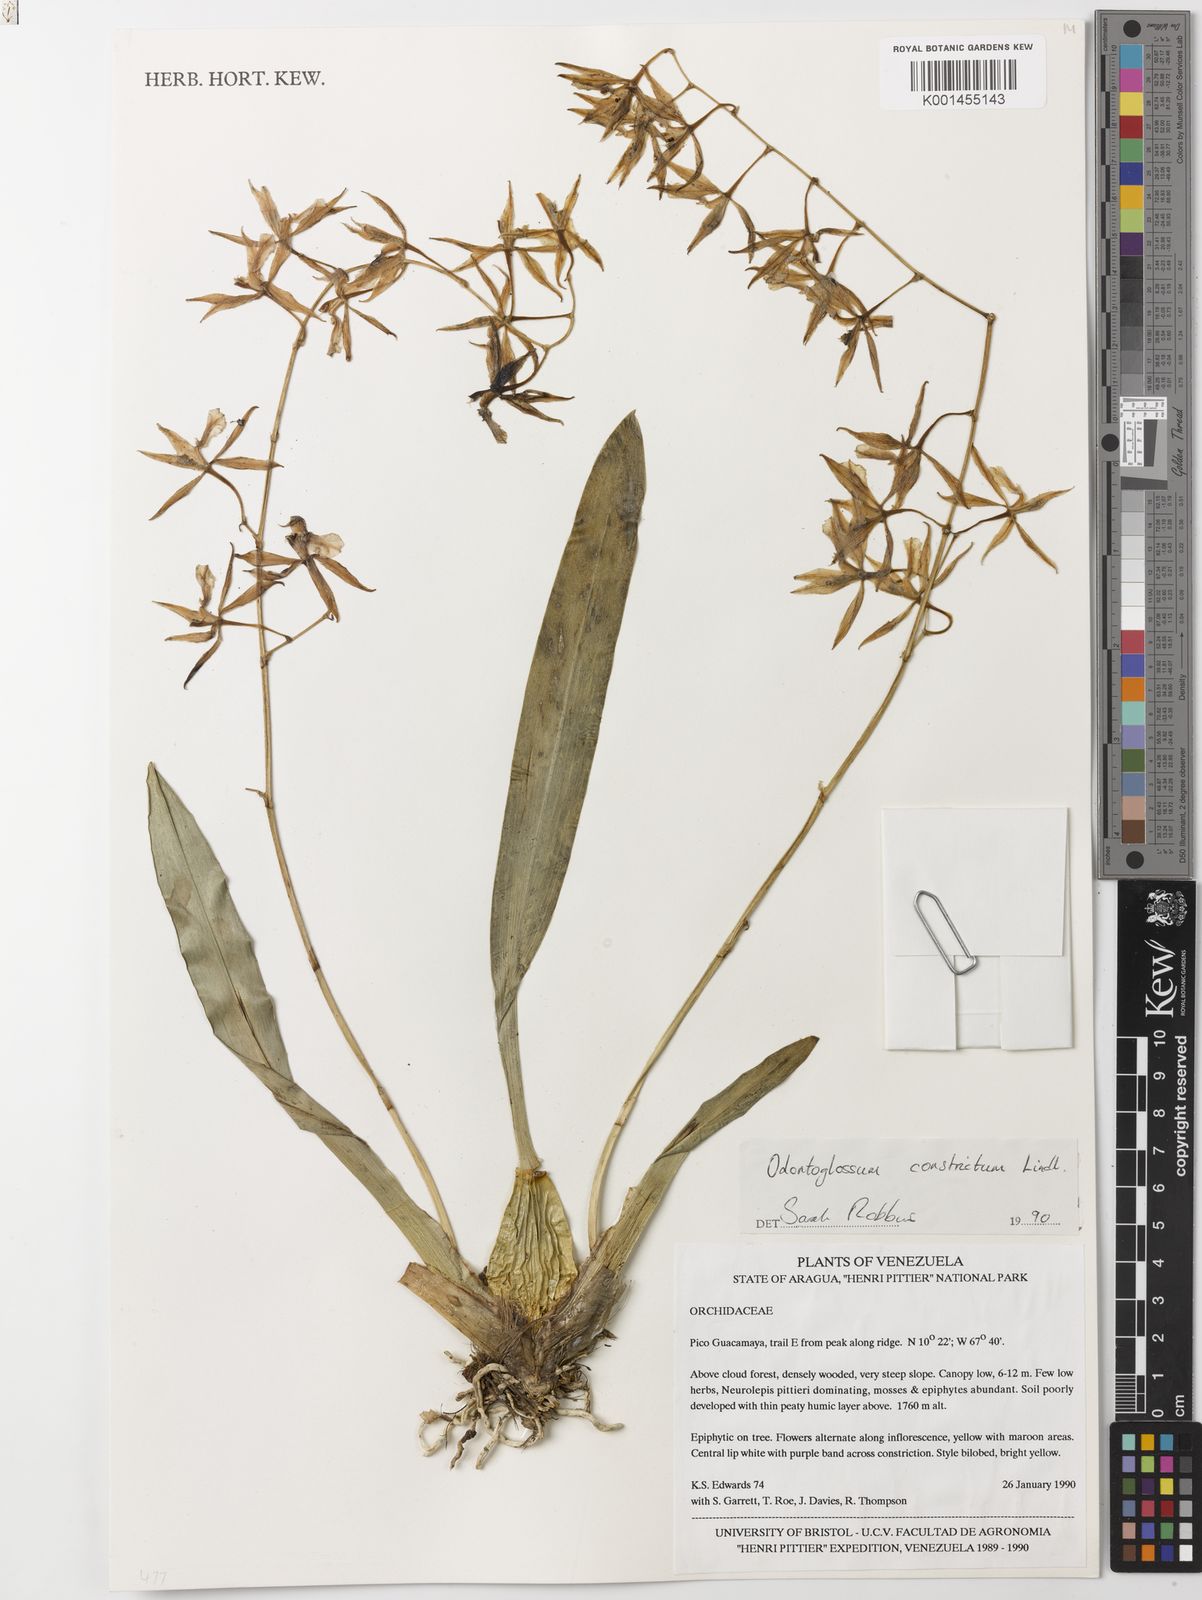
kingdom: Plantae
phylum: Tracheophyta
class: Liliopsida
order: Asparagales
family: Orchidaceae
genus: Oncidium
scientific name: Oncidium constrictum
